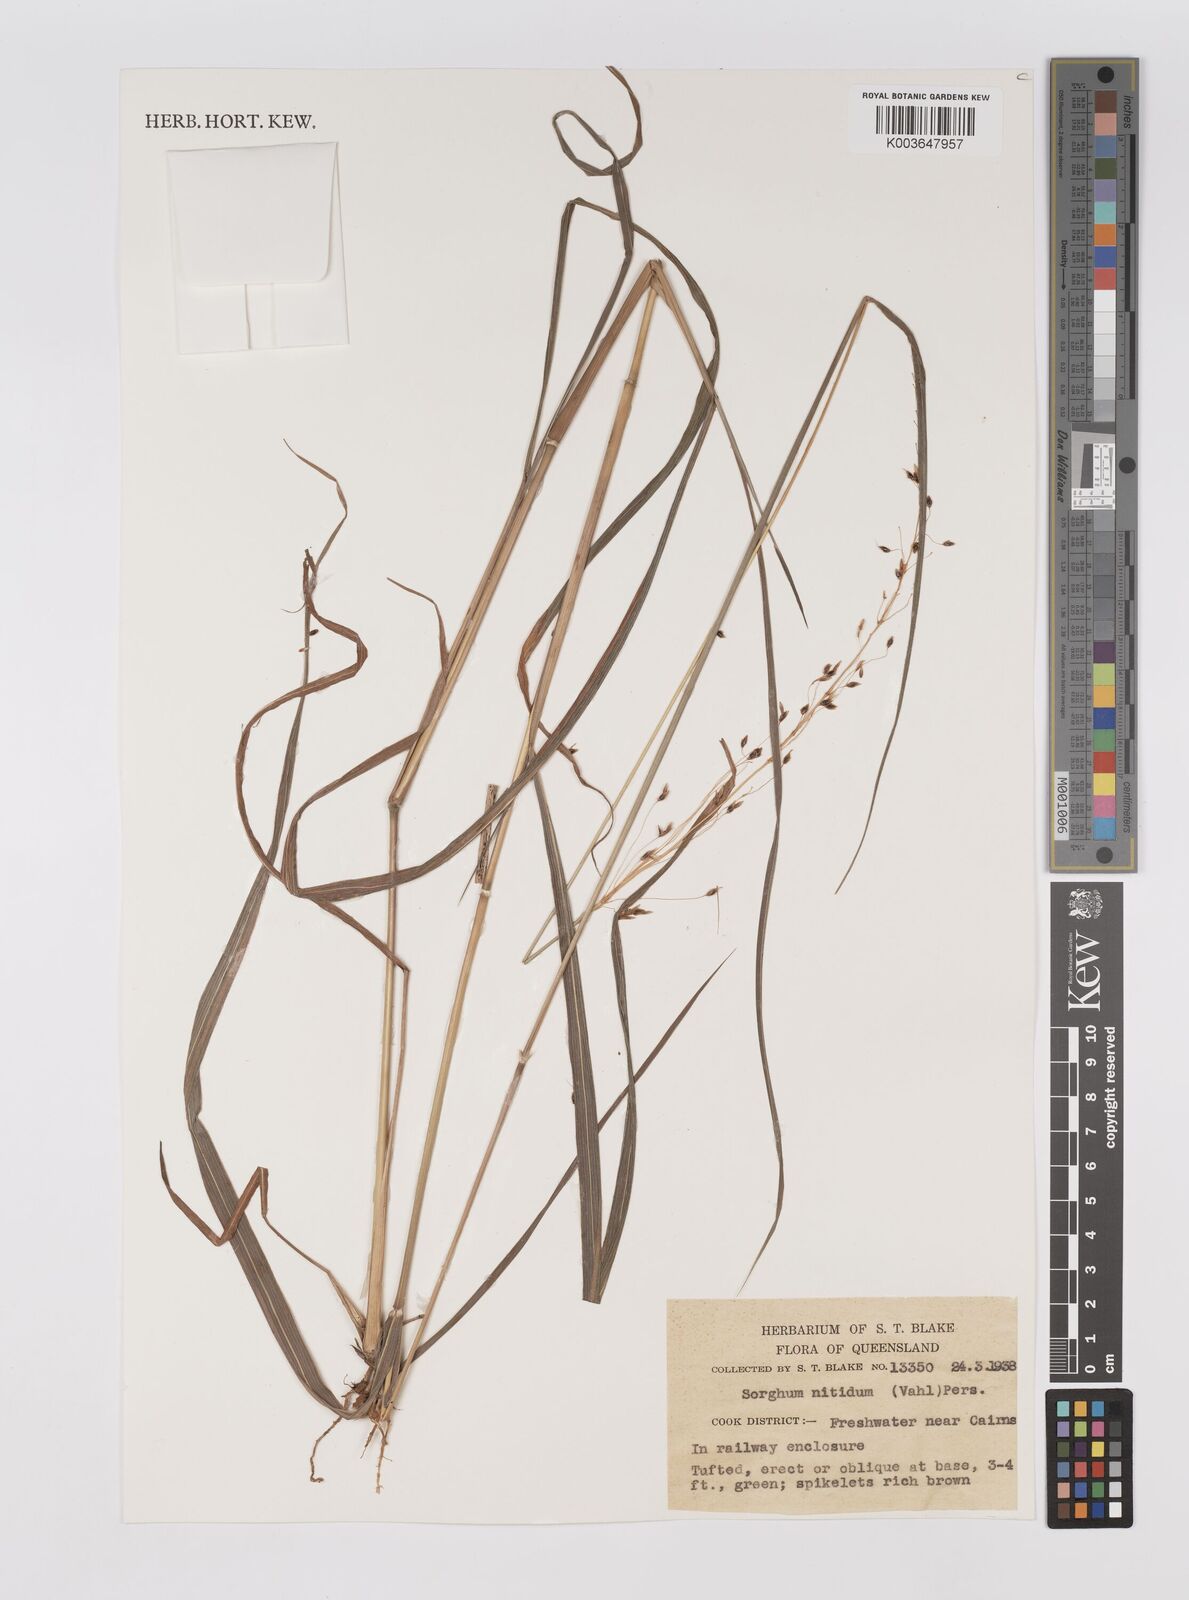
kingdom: Plantae
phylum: Tracheophyta
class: Liliopsida
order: Poales
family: Poaceae
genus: Sorghum
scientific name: Sorghum nitidum
